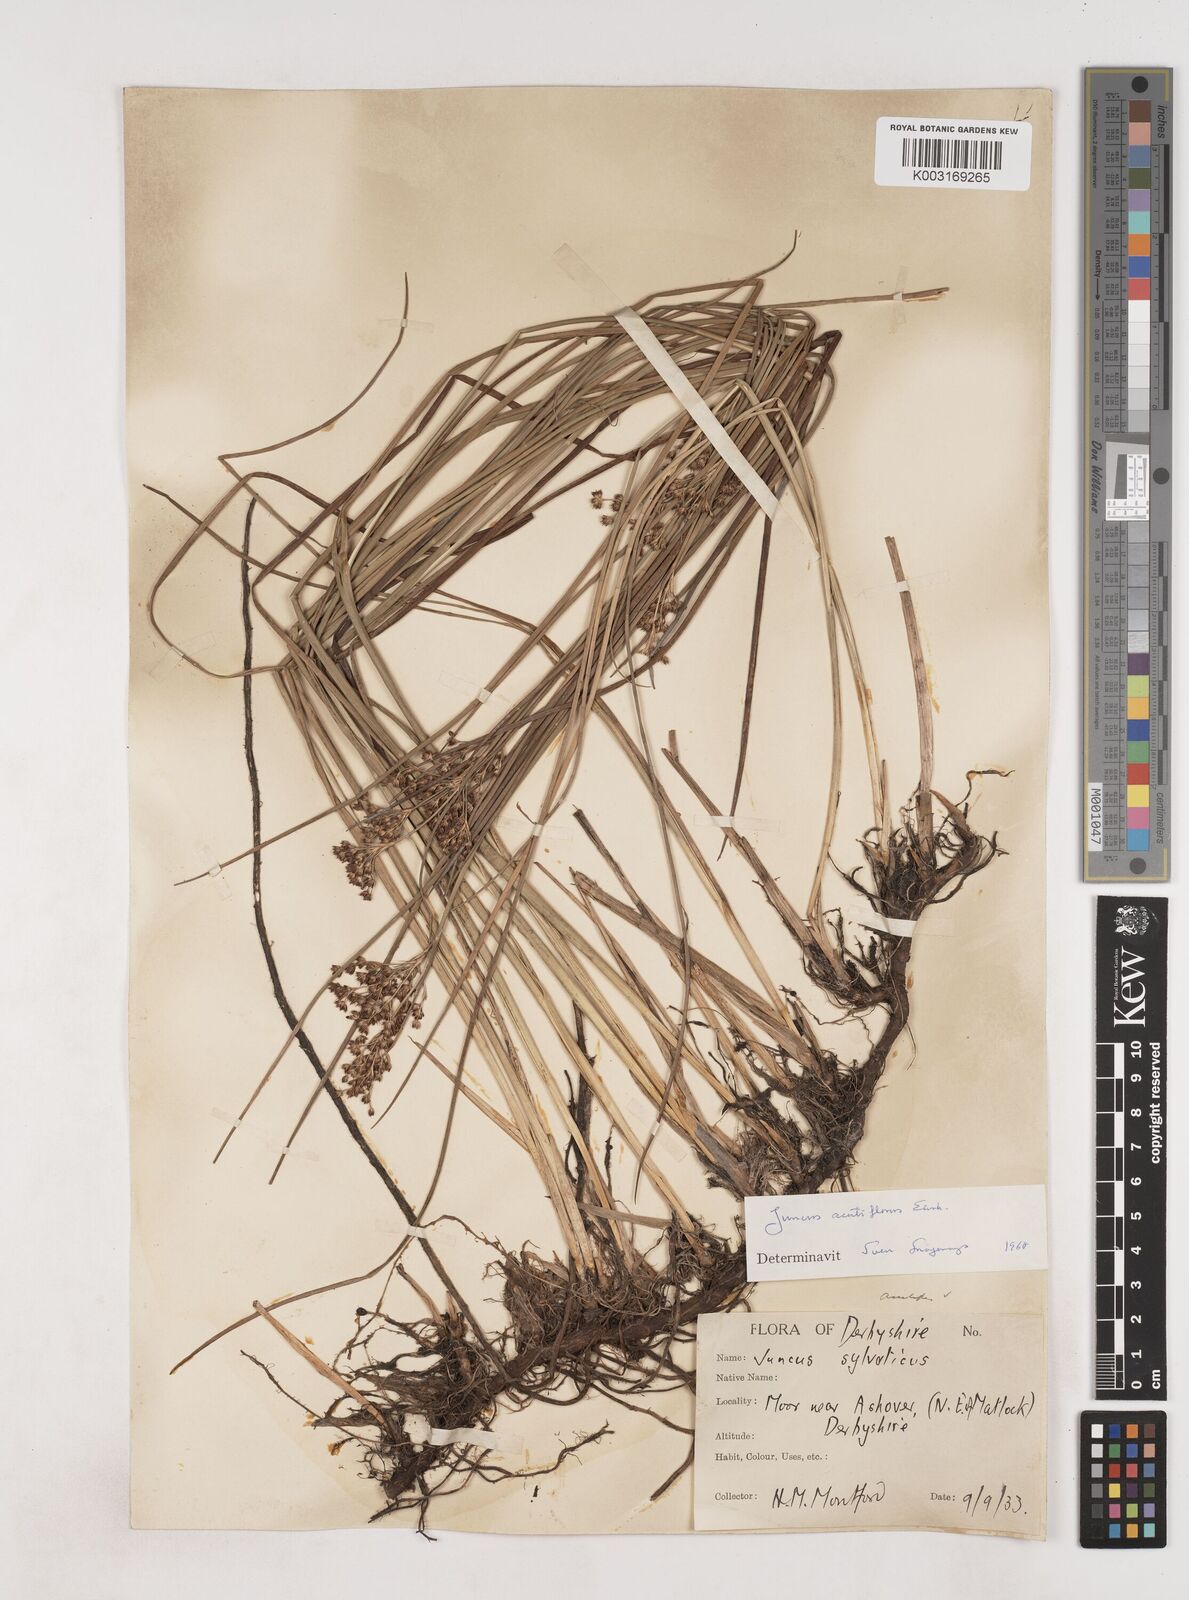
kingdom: Plantae
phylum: Tracheophyta
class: Liliopsida
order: Poales
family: Juncaceae
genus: Juncus
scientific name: Juncus acutiflorus
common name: Sharp-flowered rush
